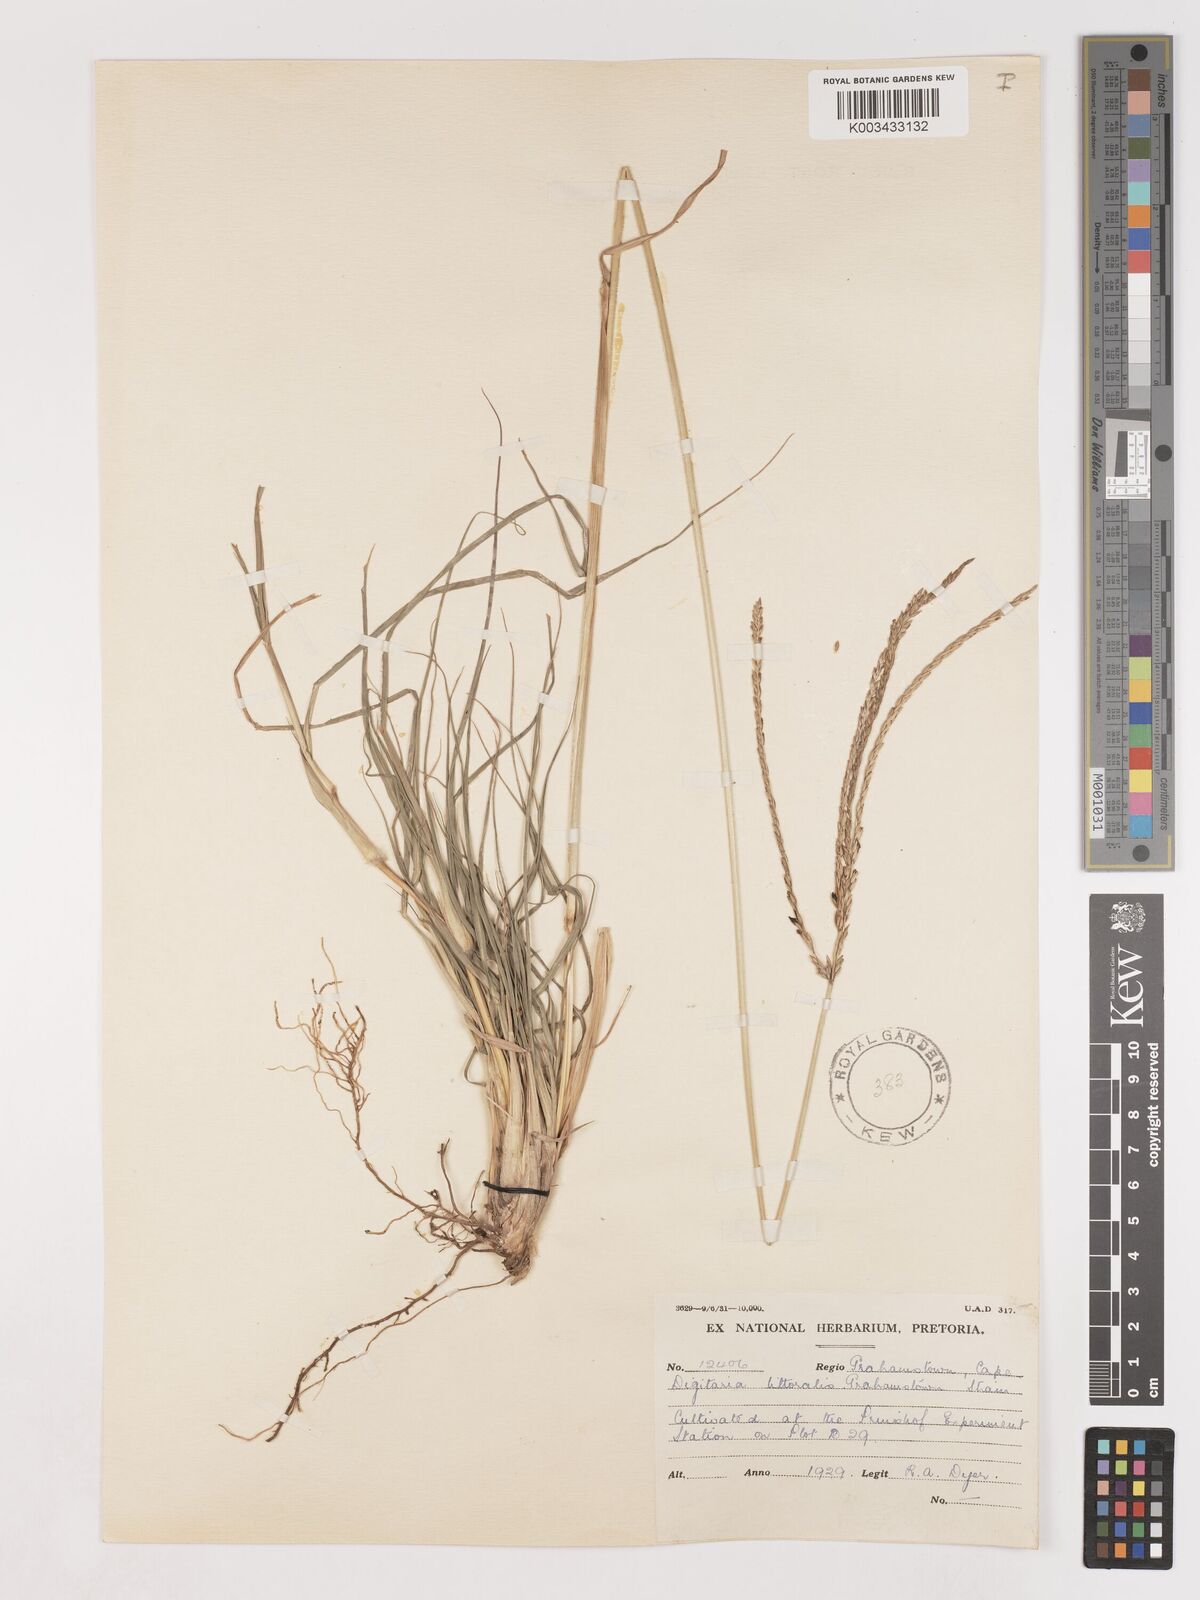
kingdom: Plantae
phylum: Tracheophyta
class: Liliopsida
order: Poales
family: Poaceae
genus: Digitaria
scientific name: Digitaria natalensis
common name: Coast finger grass
